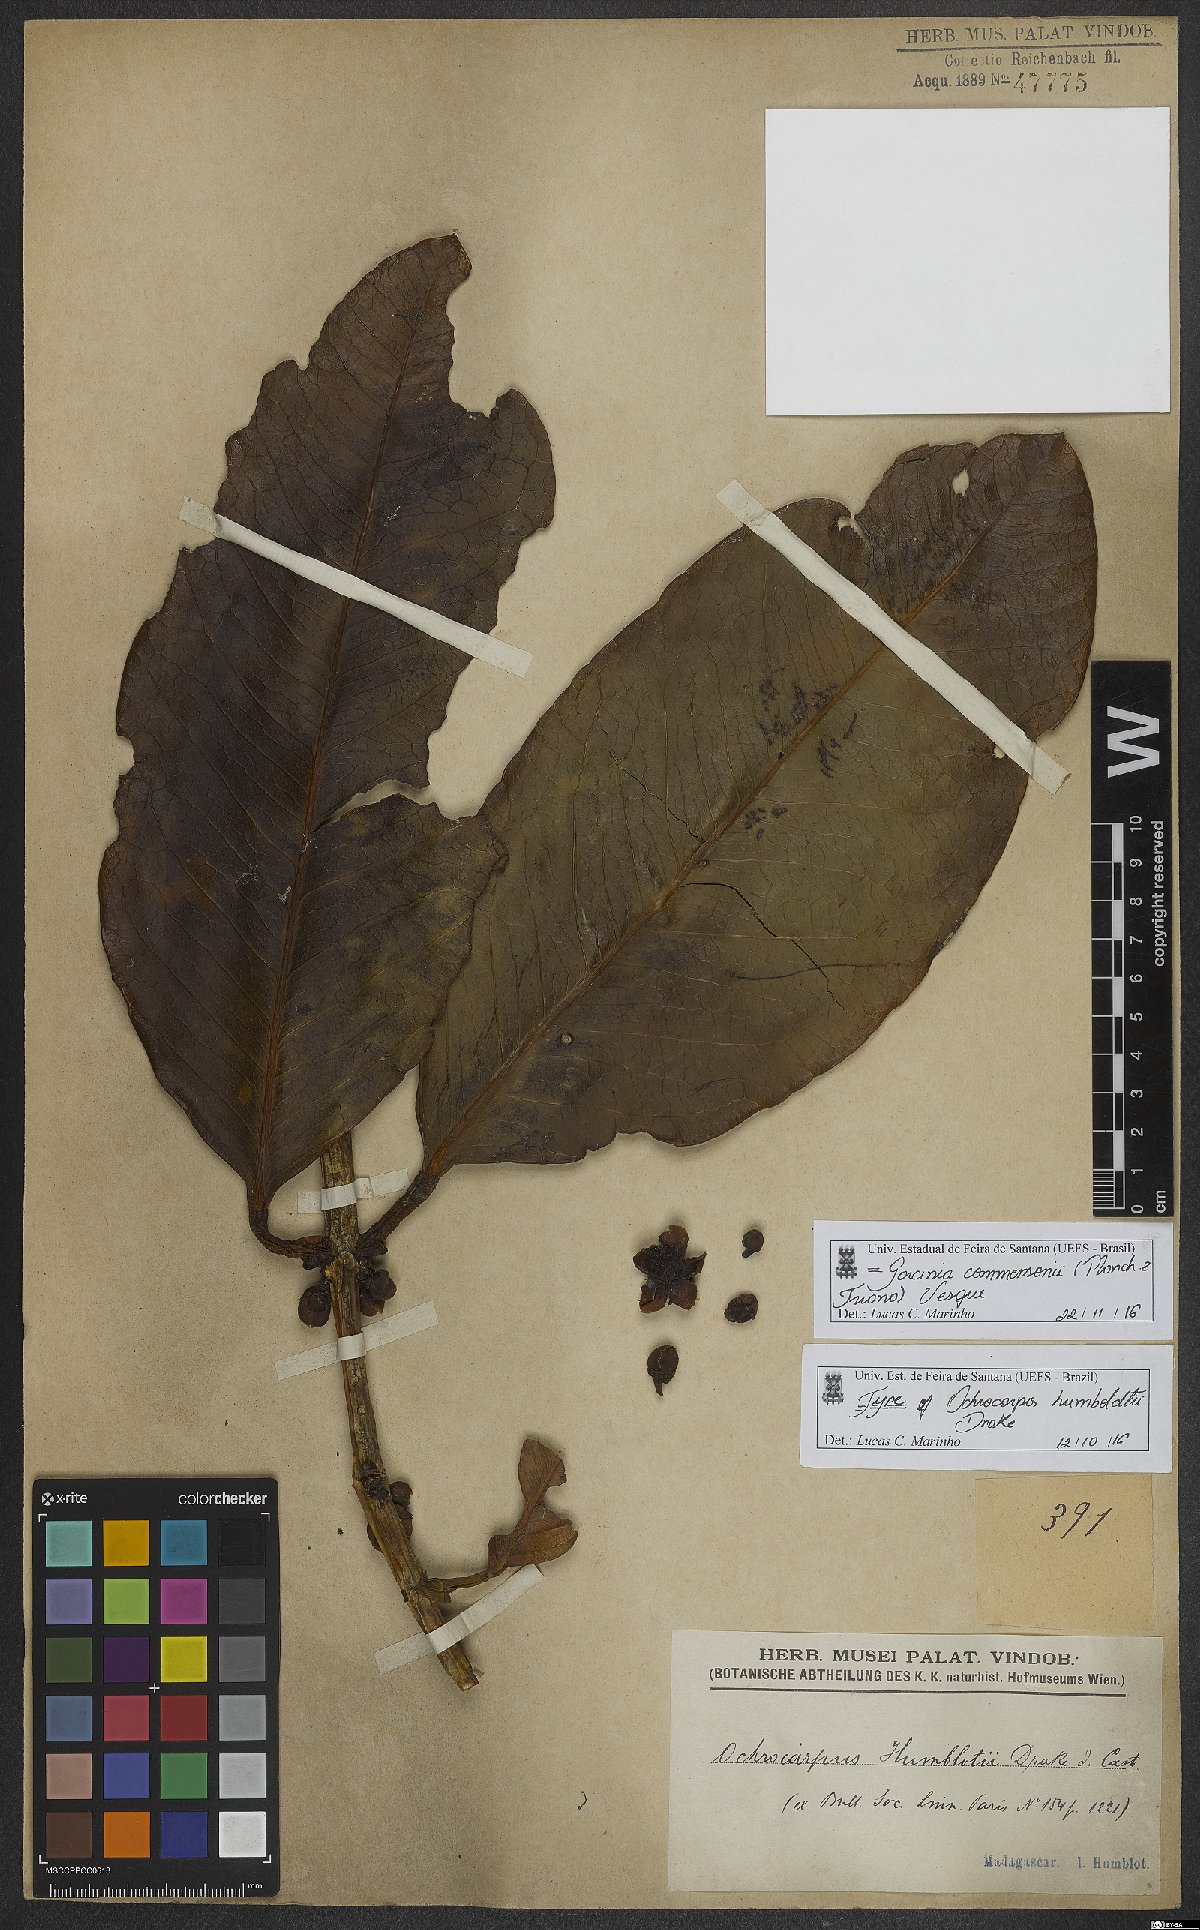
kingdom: Plantae
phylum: Tracheophyta
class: Magnoliopsida
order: Malpighiales
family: Clusiaceae
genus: Garcinia
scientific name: Garcinia commersonii
